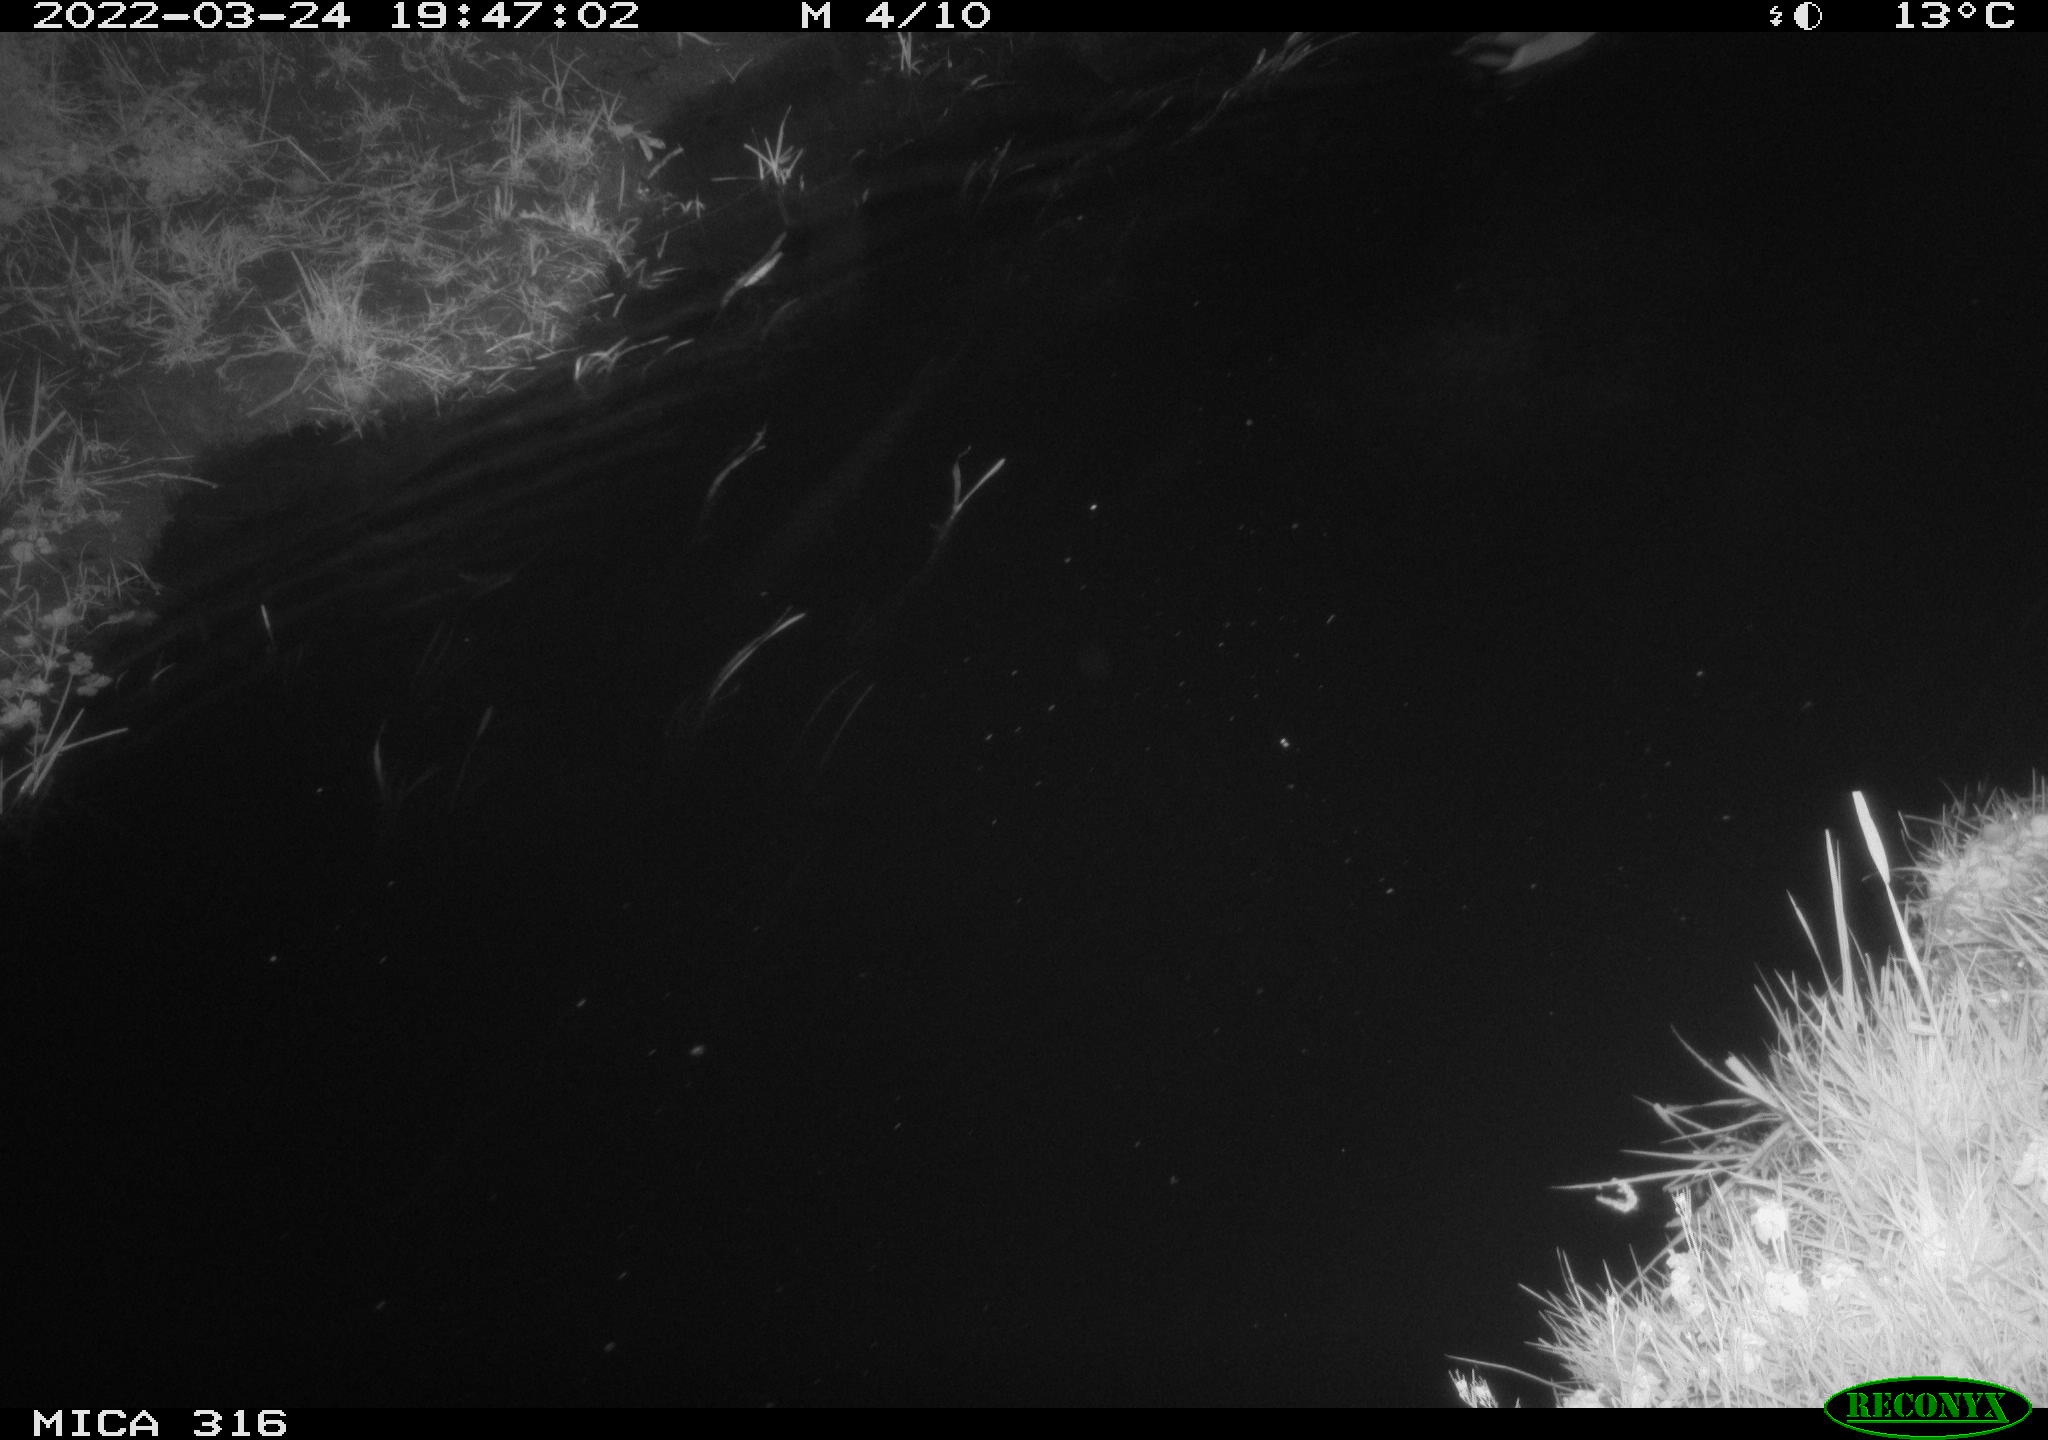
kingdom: Animalia
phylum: Chordata
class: Aves
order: Anseriformes
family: Anatidae
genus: Anas
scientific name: Anas platyrhynchos
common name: Mallard
